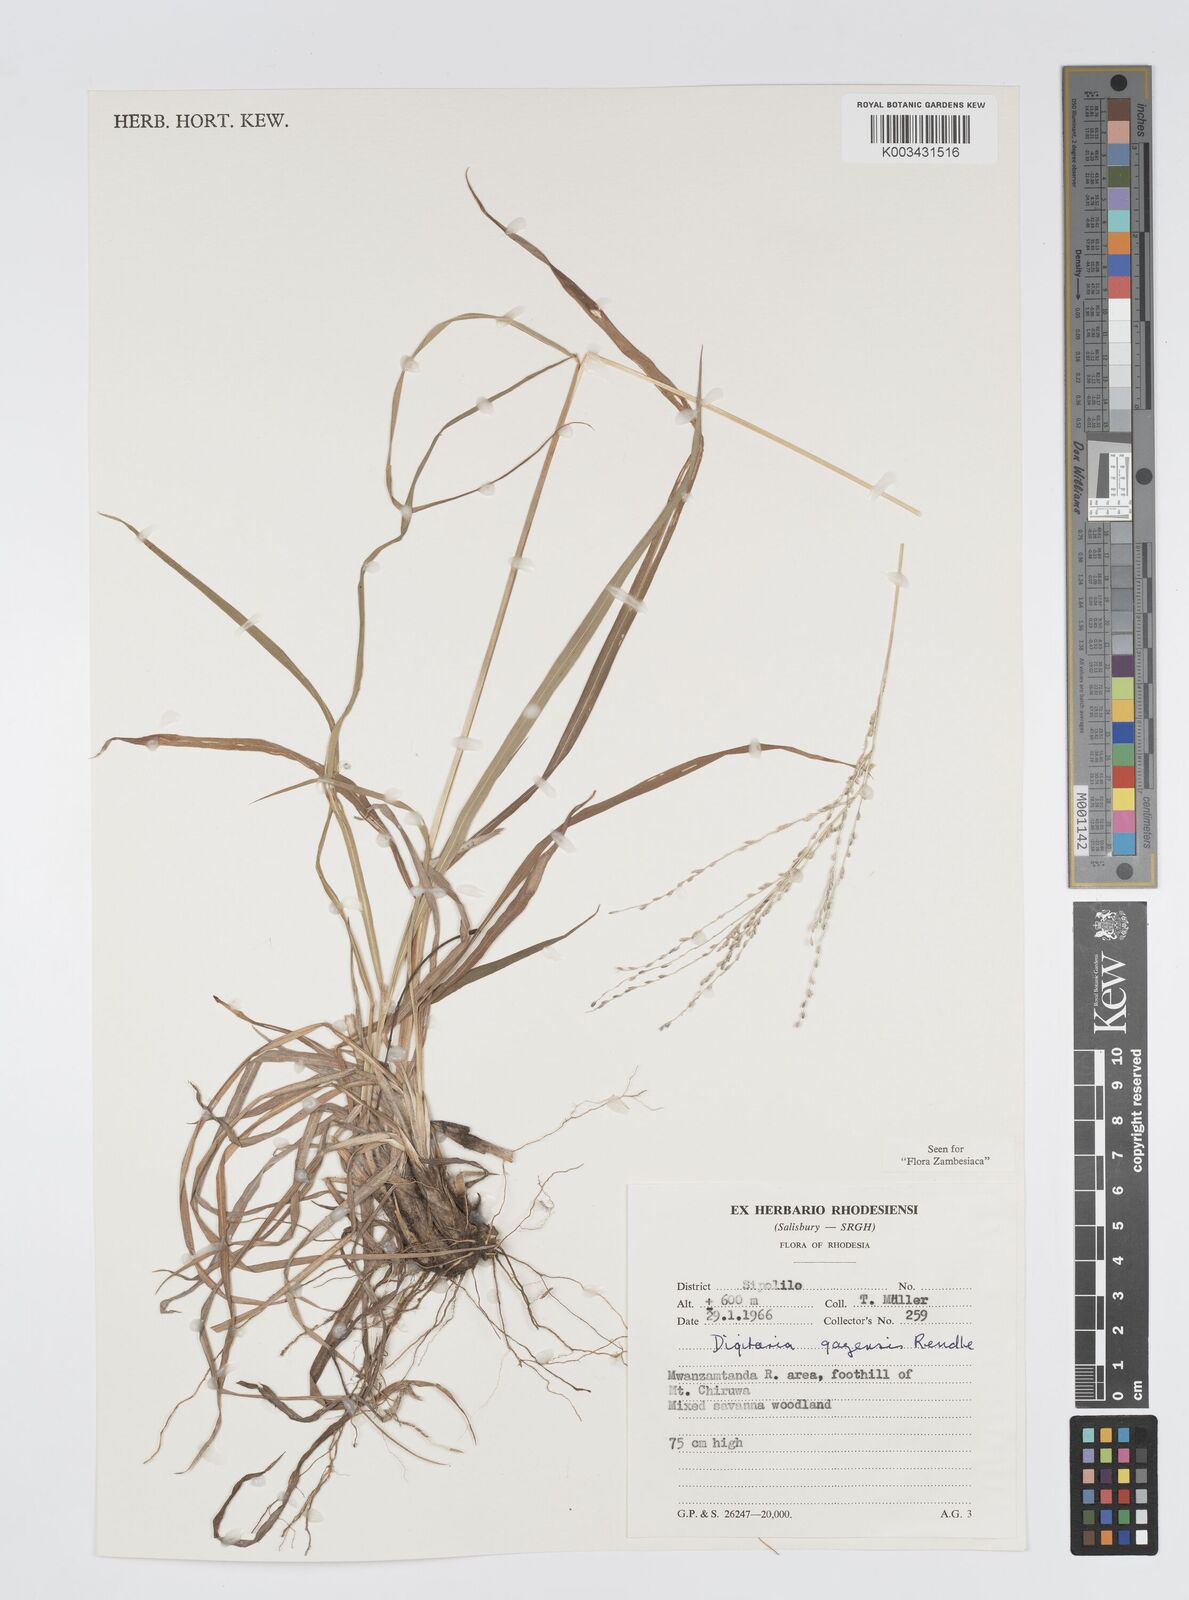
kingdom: Plantae
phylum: Tracheophyta
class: Liliopsida
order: Poales
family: Poaceae
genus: Digitaria
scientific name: Digitaria gazensis
